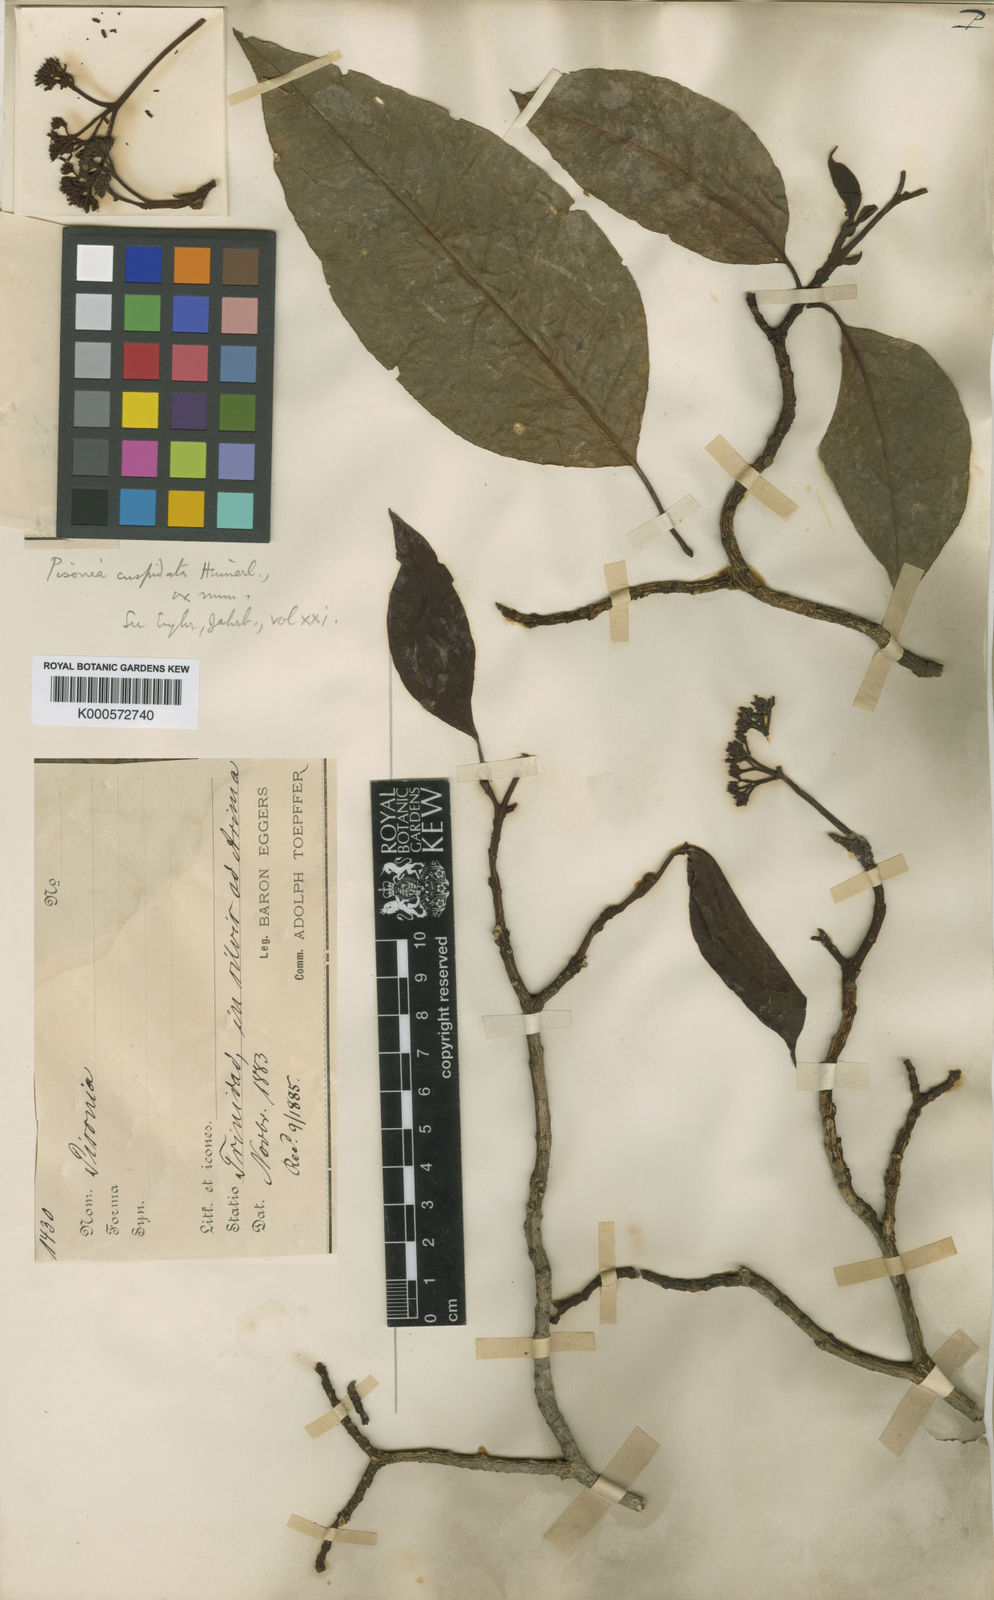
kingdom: Plantae
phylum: Tracheophyta
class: Magnoliopsida
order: Caryophyllales
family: Nyctaginaceae
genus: Guapira
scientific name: Guapira cuspidata
